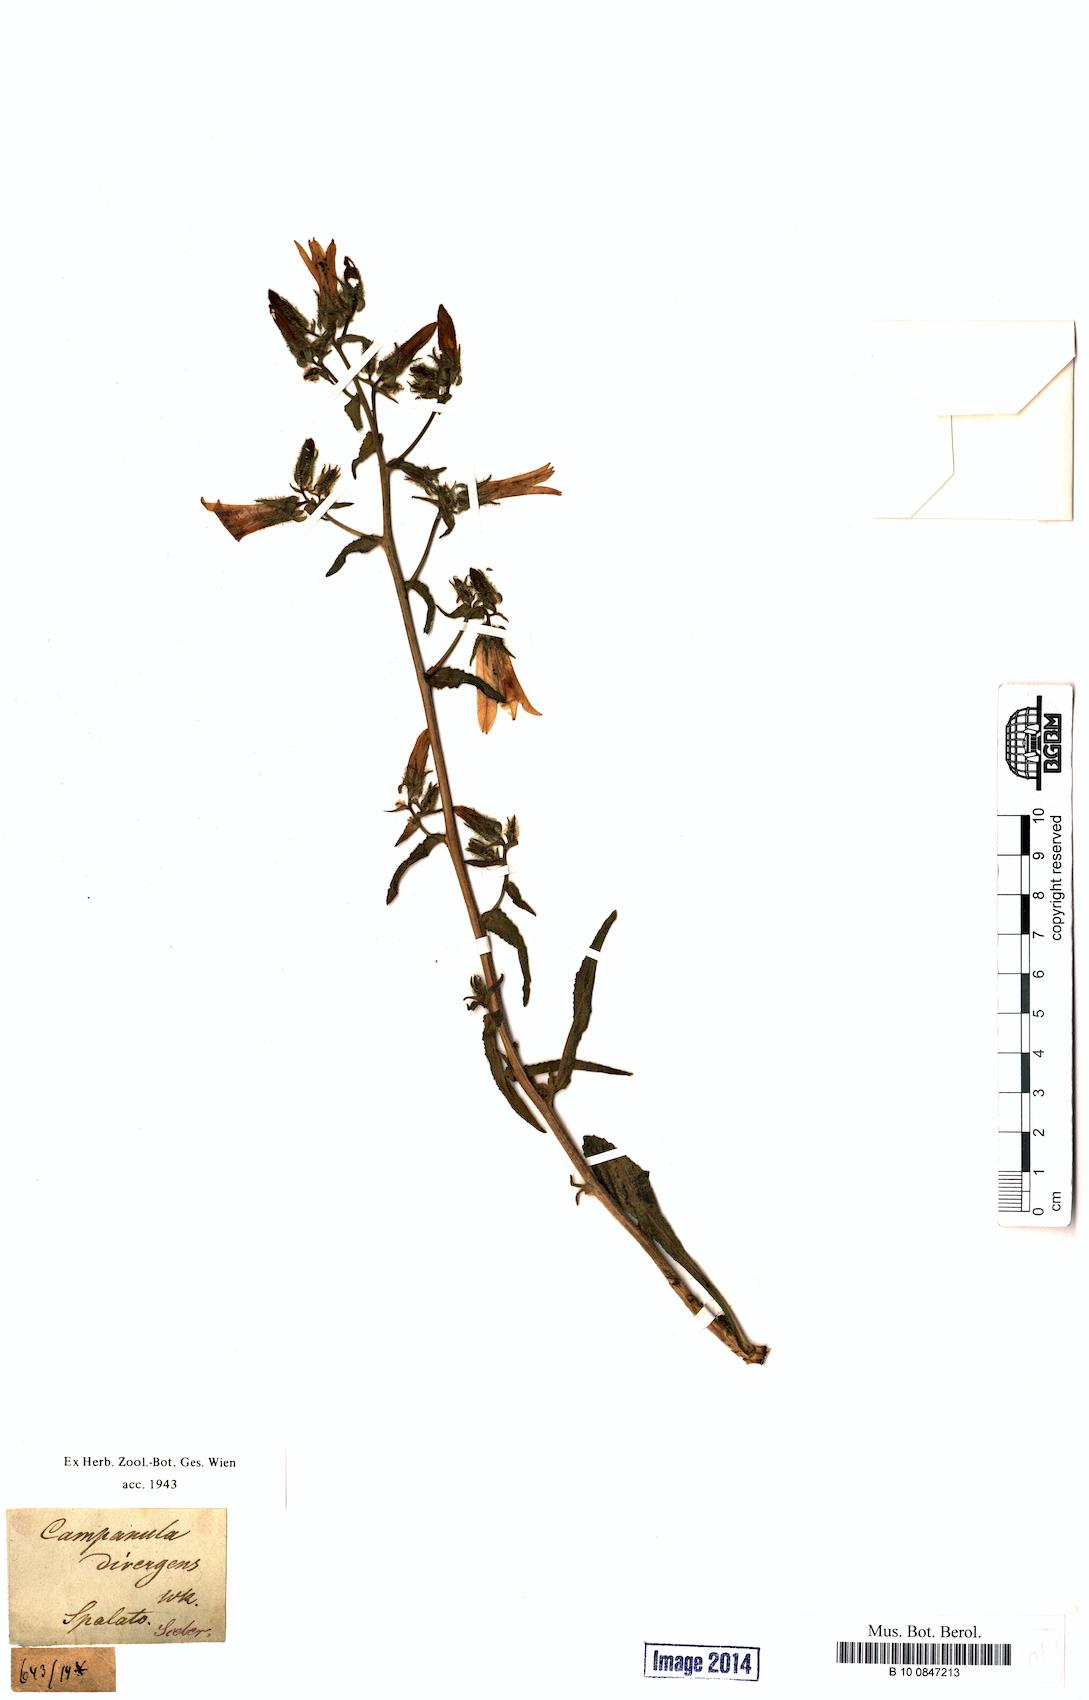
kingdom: Plantae
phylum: Tracheophyta
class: Magnoliopsida
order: Asterales
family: Campanulaceae
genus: Campanula
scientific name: Campanula sibirica
